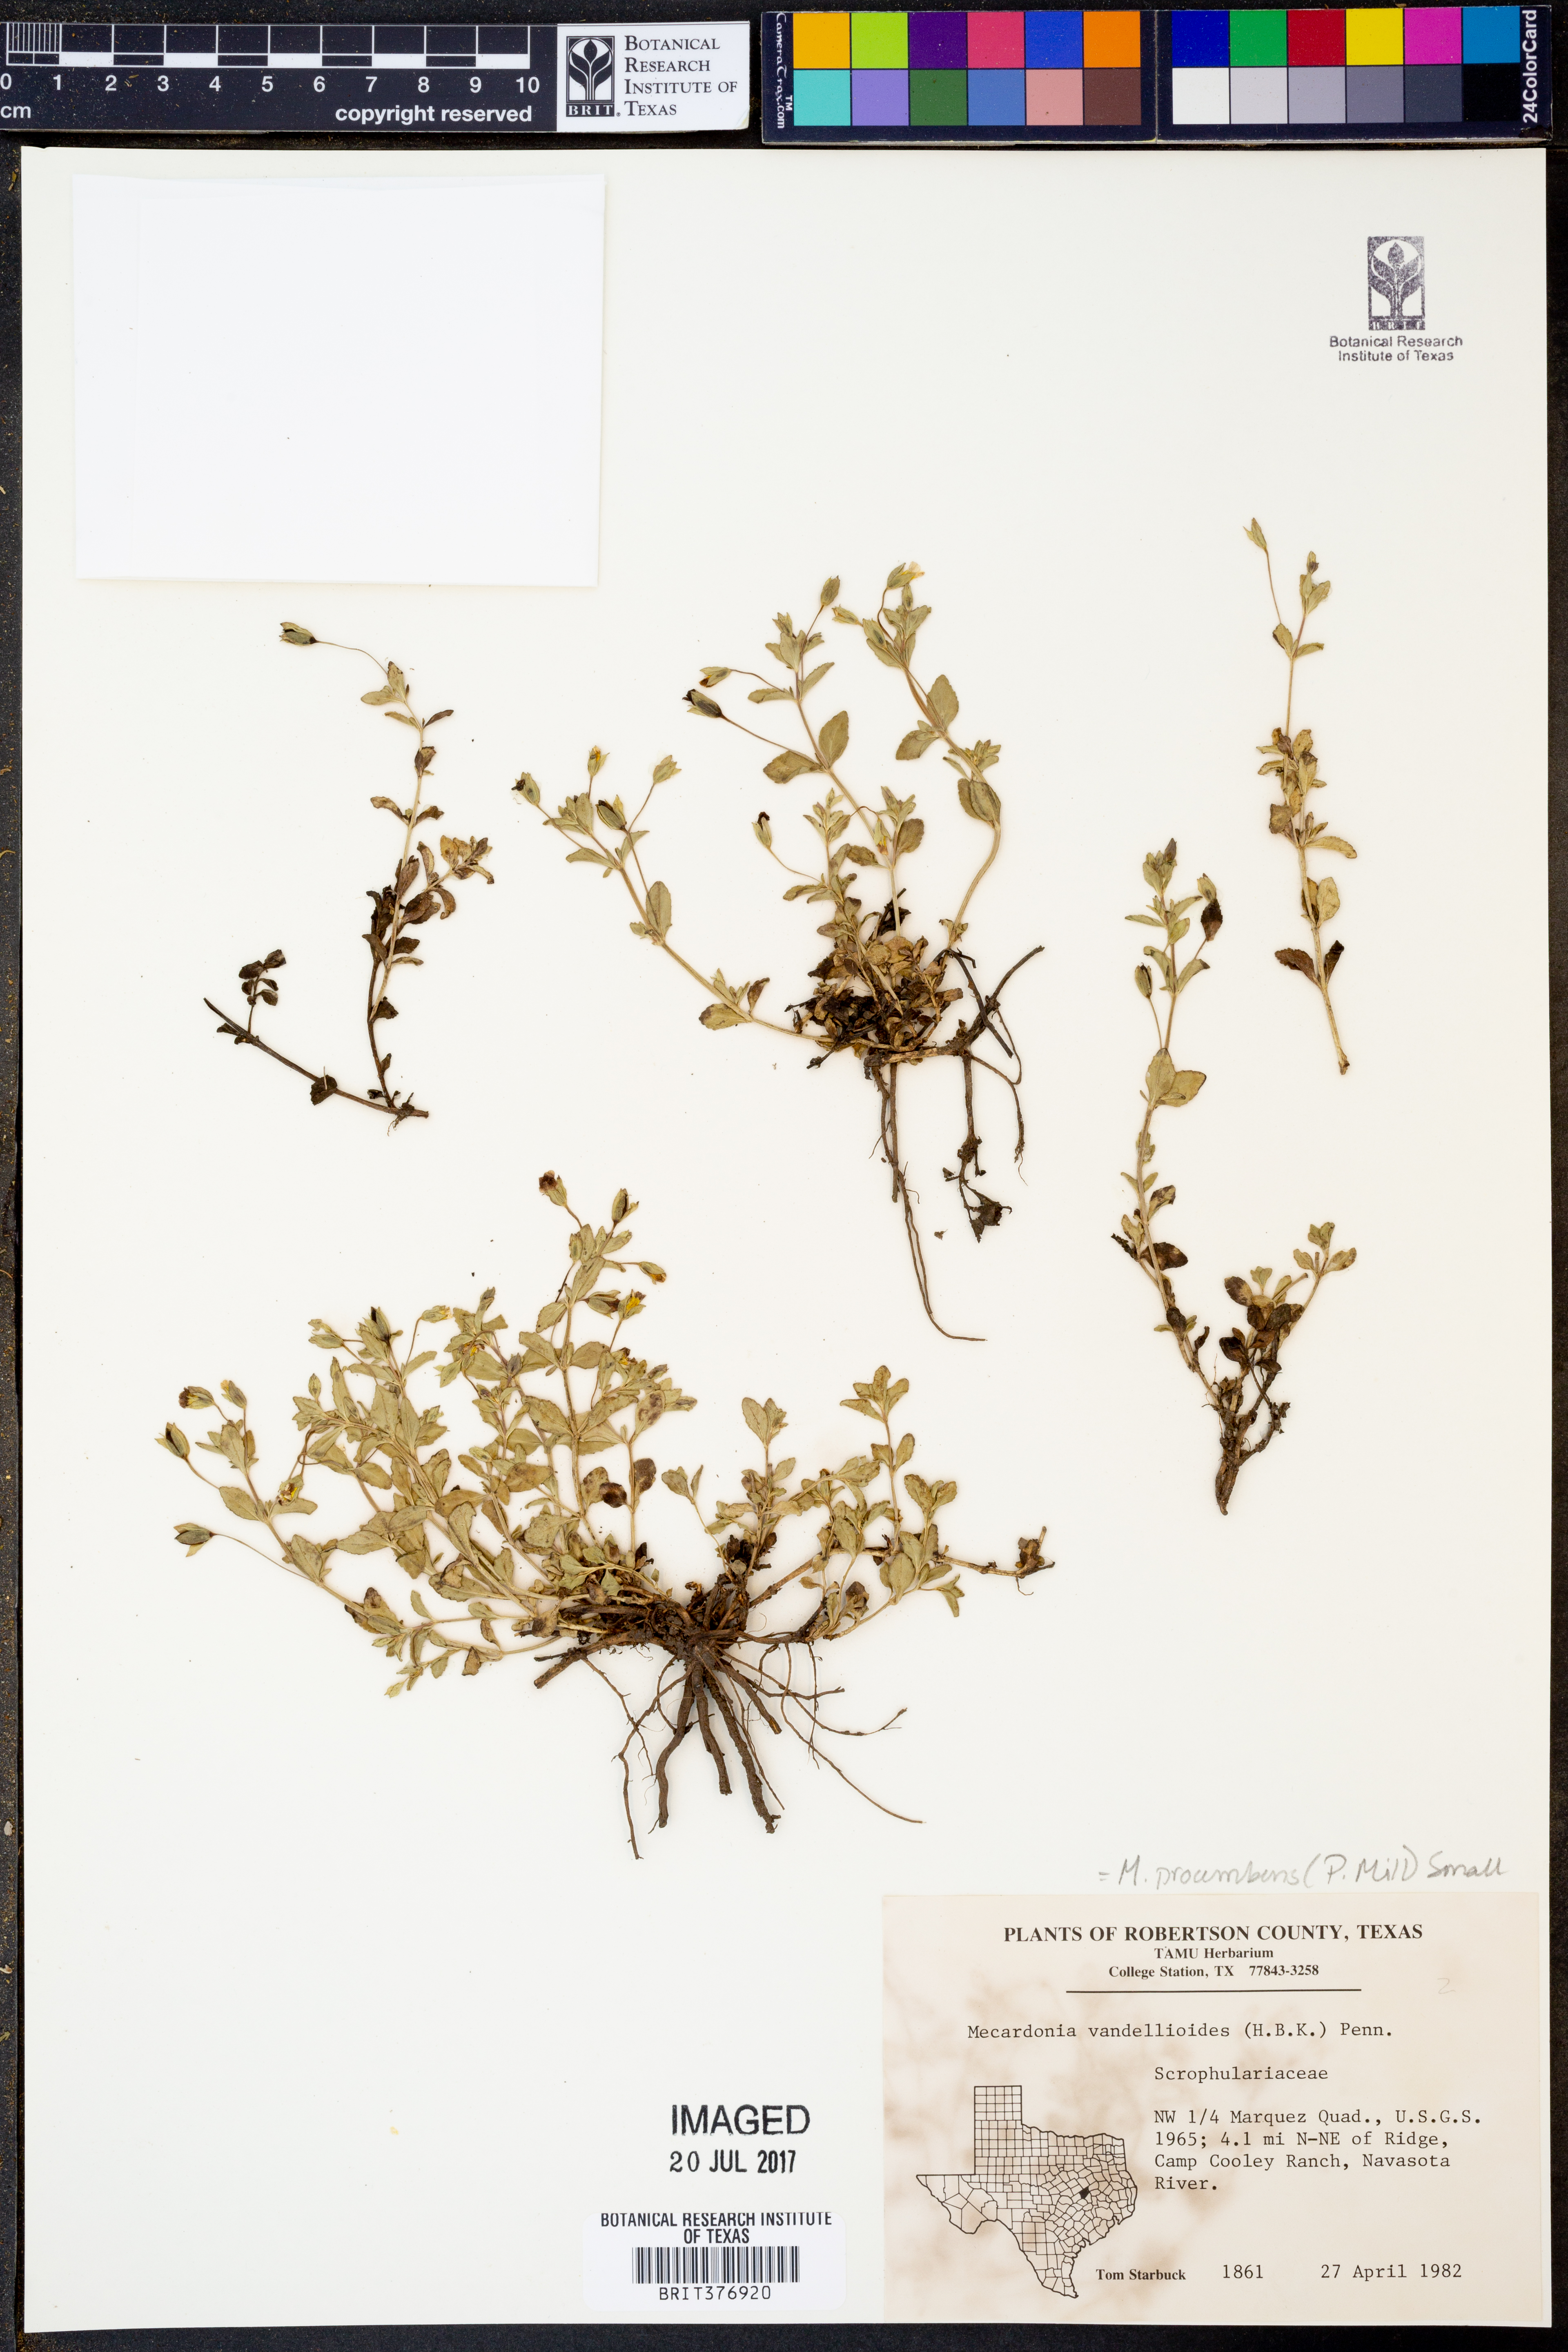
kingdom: Plantae
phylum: Tracheophyta
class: Magnoliopsida
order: Lamiales
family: Plantaginaceae
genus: Mecardonia
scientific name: Mecardonia procumbens
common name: Baby jump-up
